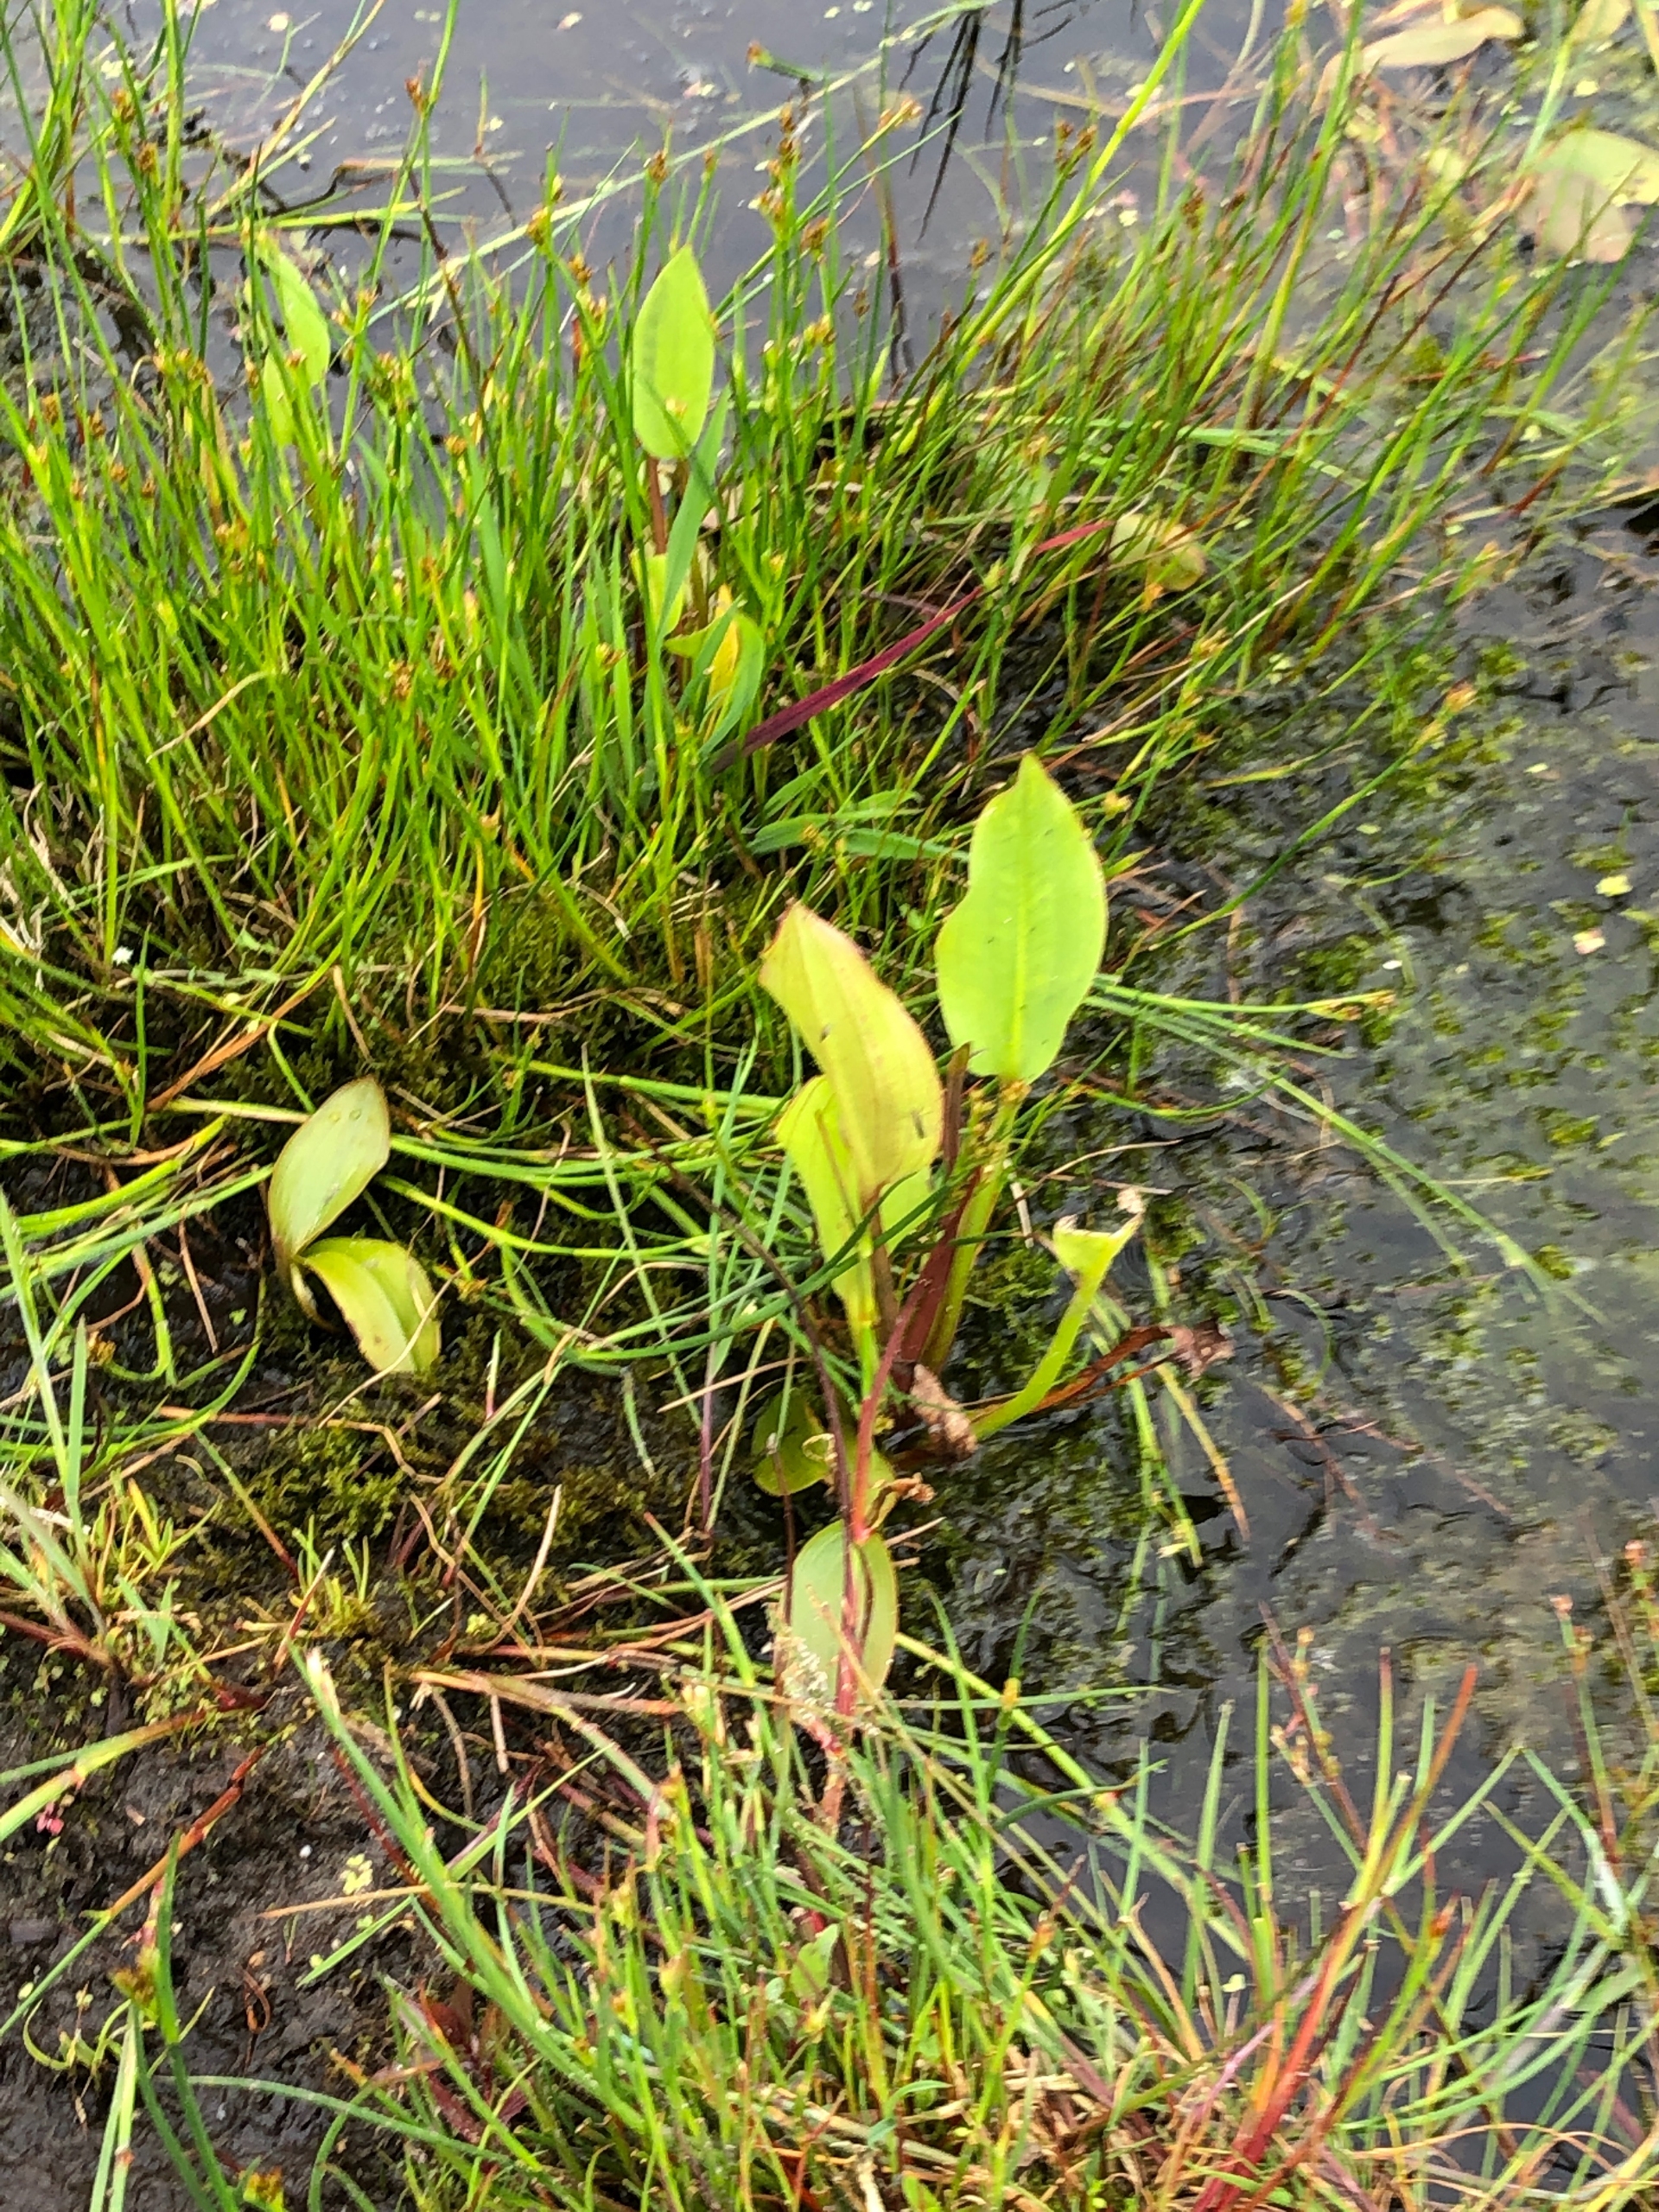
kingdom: Plantae
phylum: Tracheophyta
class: Liliopsida
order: Alismatales
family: Alismataceae
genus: Alisma
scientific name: Alisma plantago-aquatica
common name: Vejbred-skeblad
